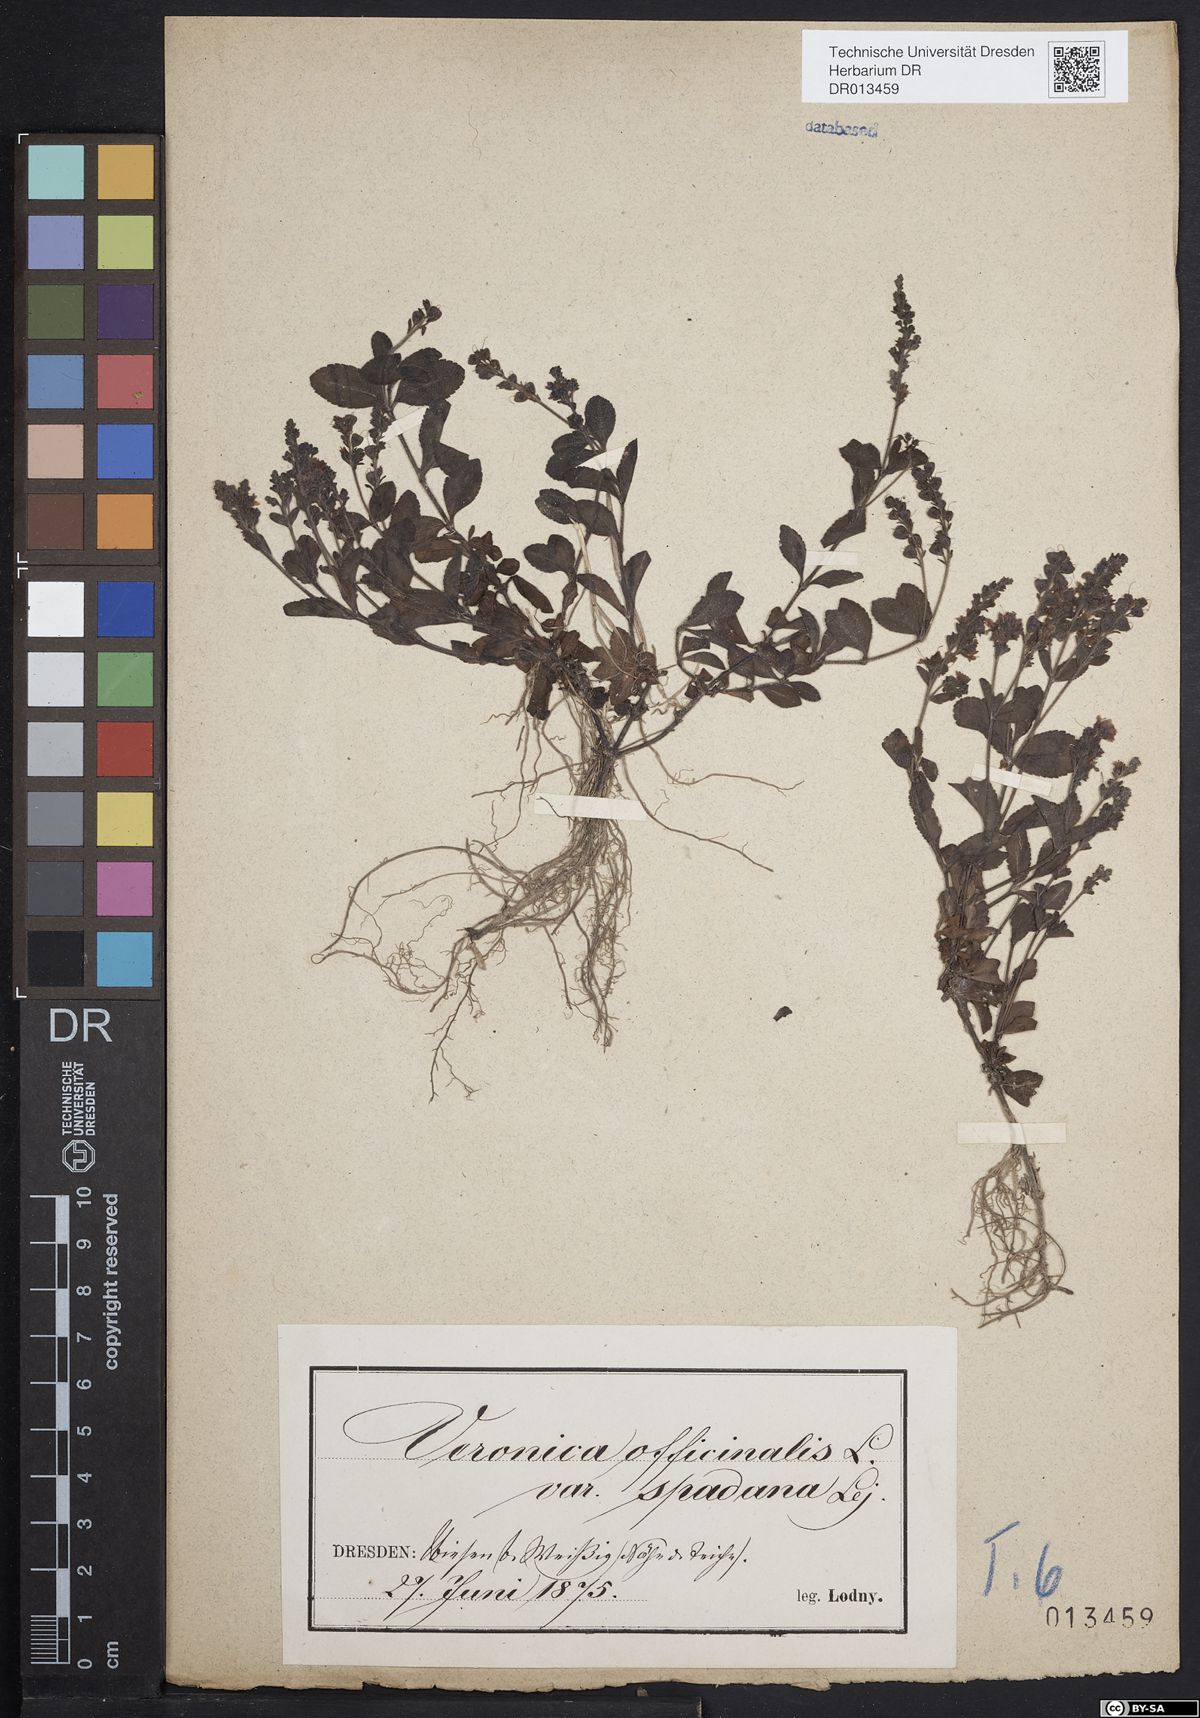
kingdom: Plantae
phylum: Tracheophyta
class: Magnoliopsida
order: Lamiales
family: Plantaginaceae
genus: Veronica
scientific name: Veronica officinalis
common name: Common speedwell
